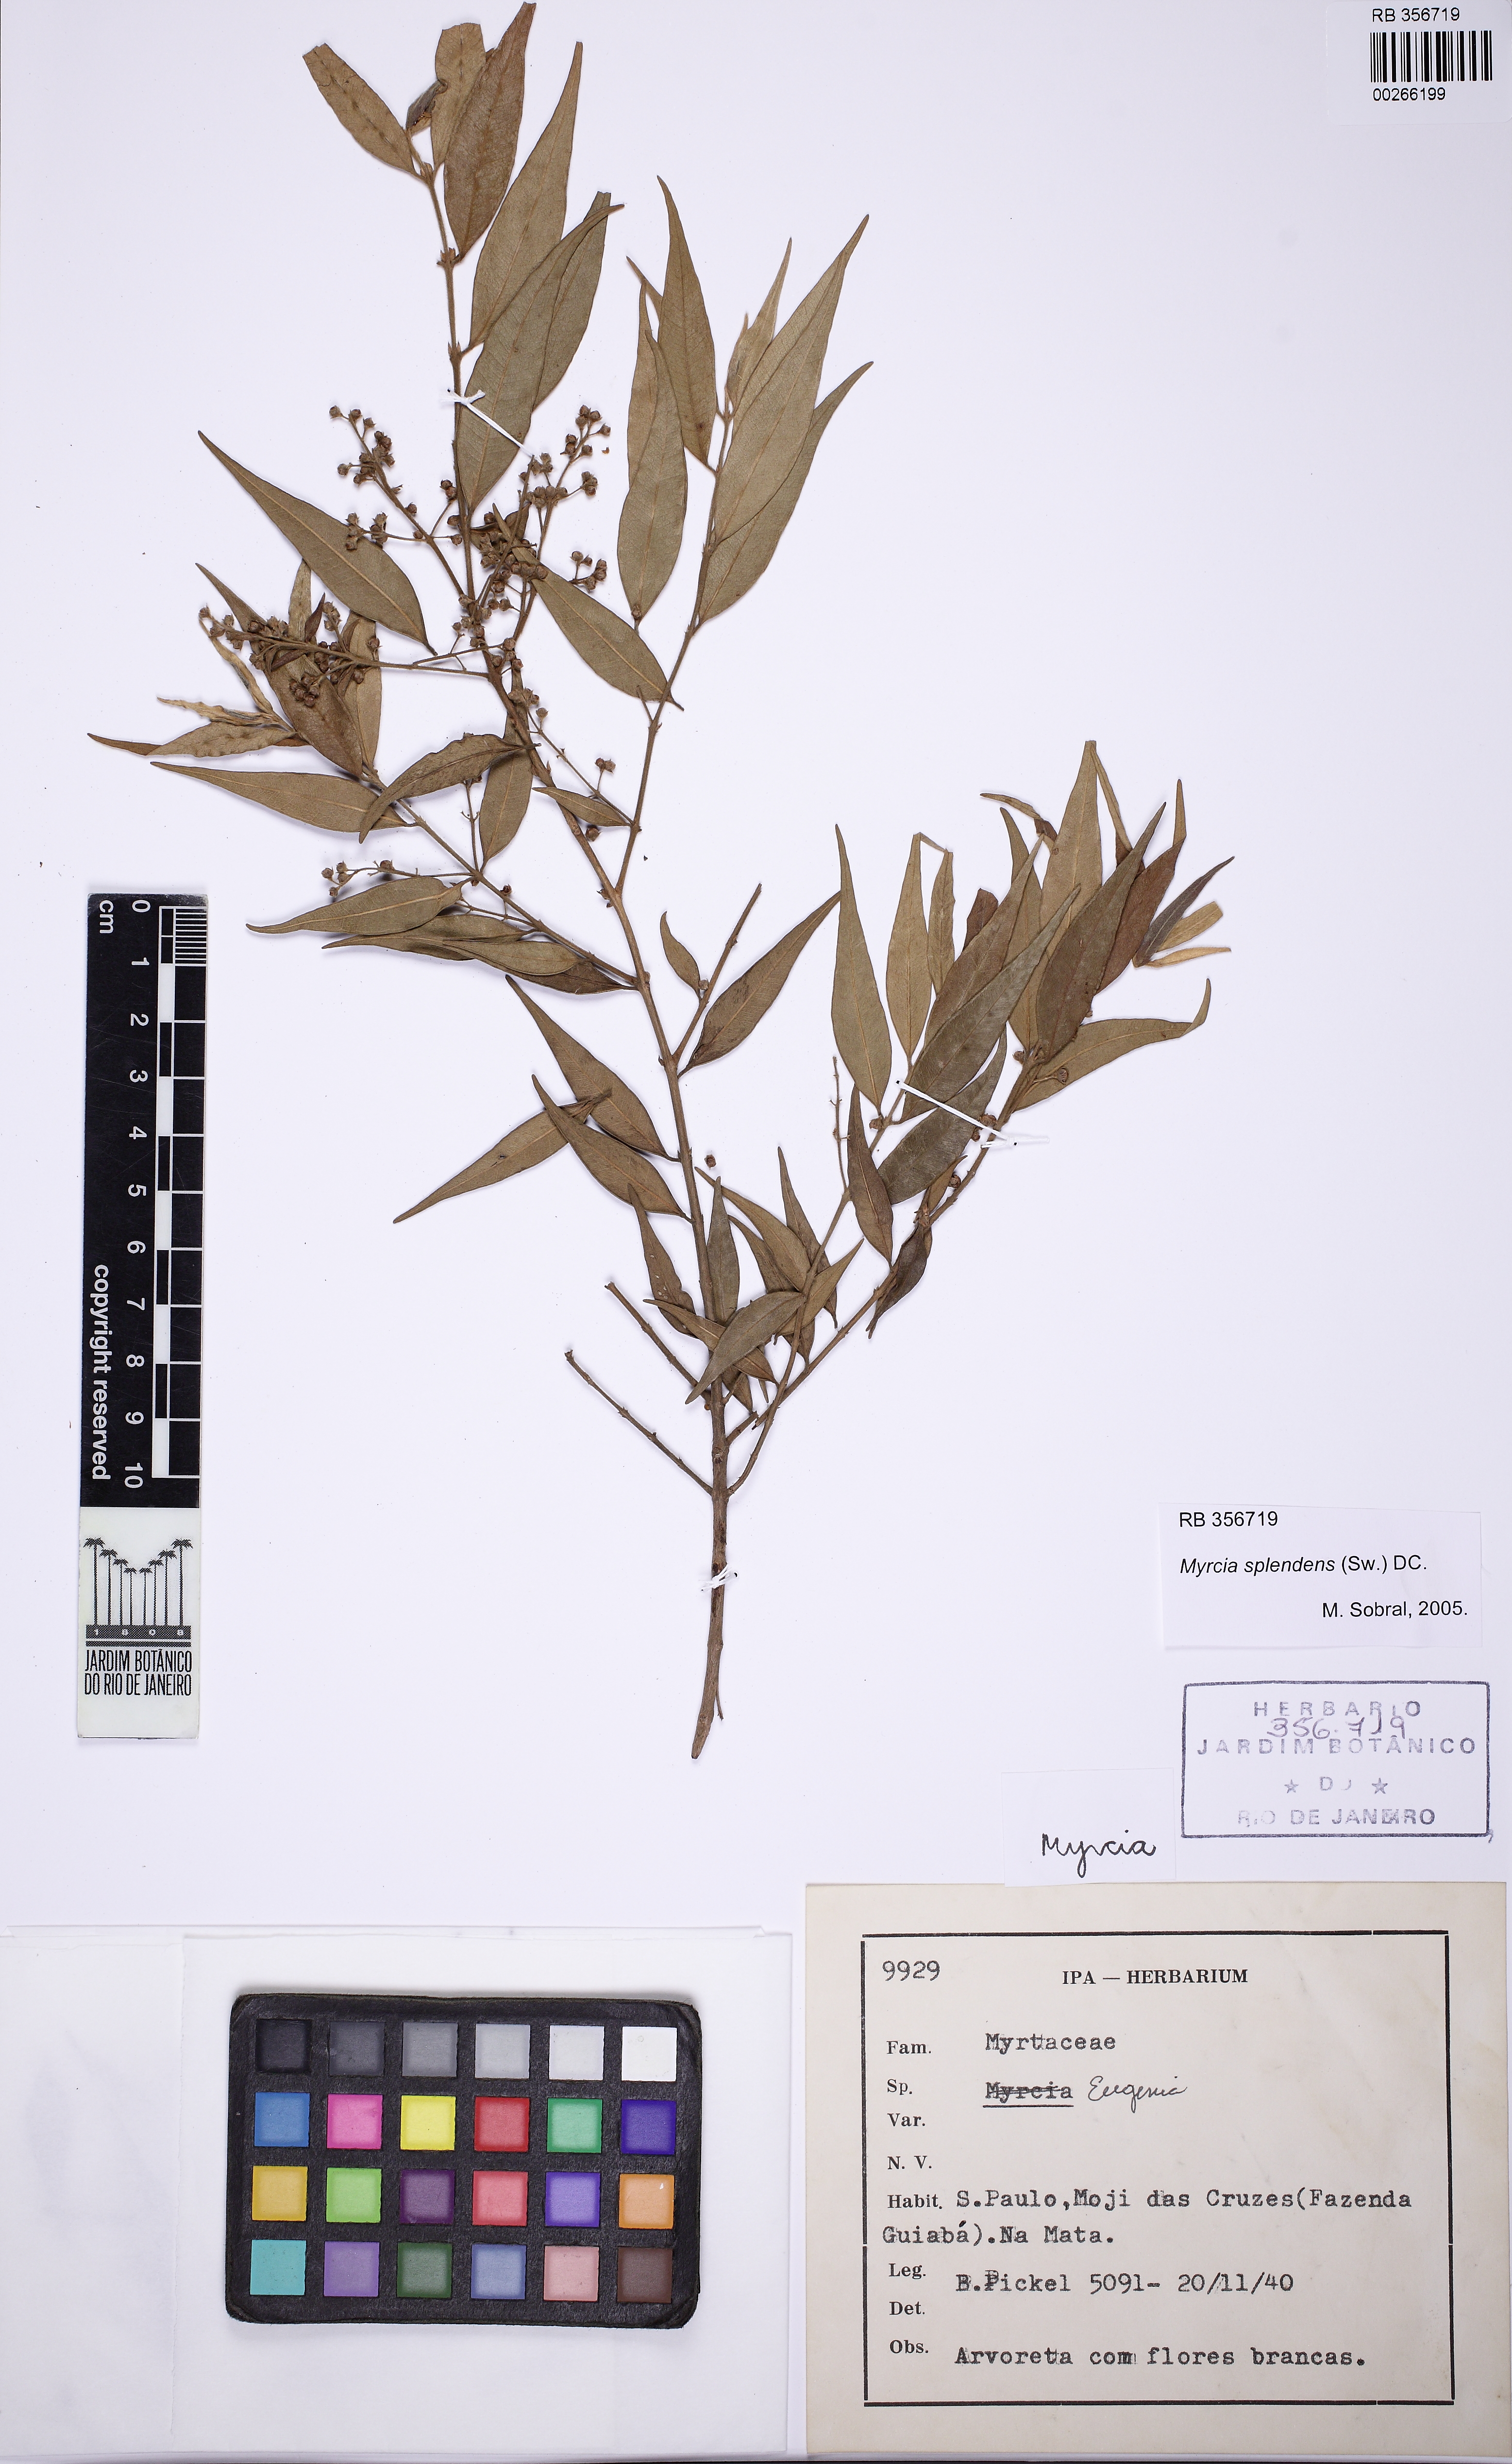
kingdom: Plantae
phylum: Tracheophyta
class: Magnoliopsida
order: Myrtales
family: Myrtaceae
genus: Myrcia
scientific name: Myrcia splendens
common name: Surinam cherry
